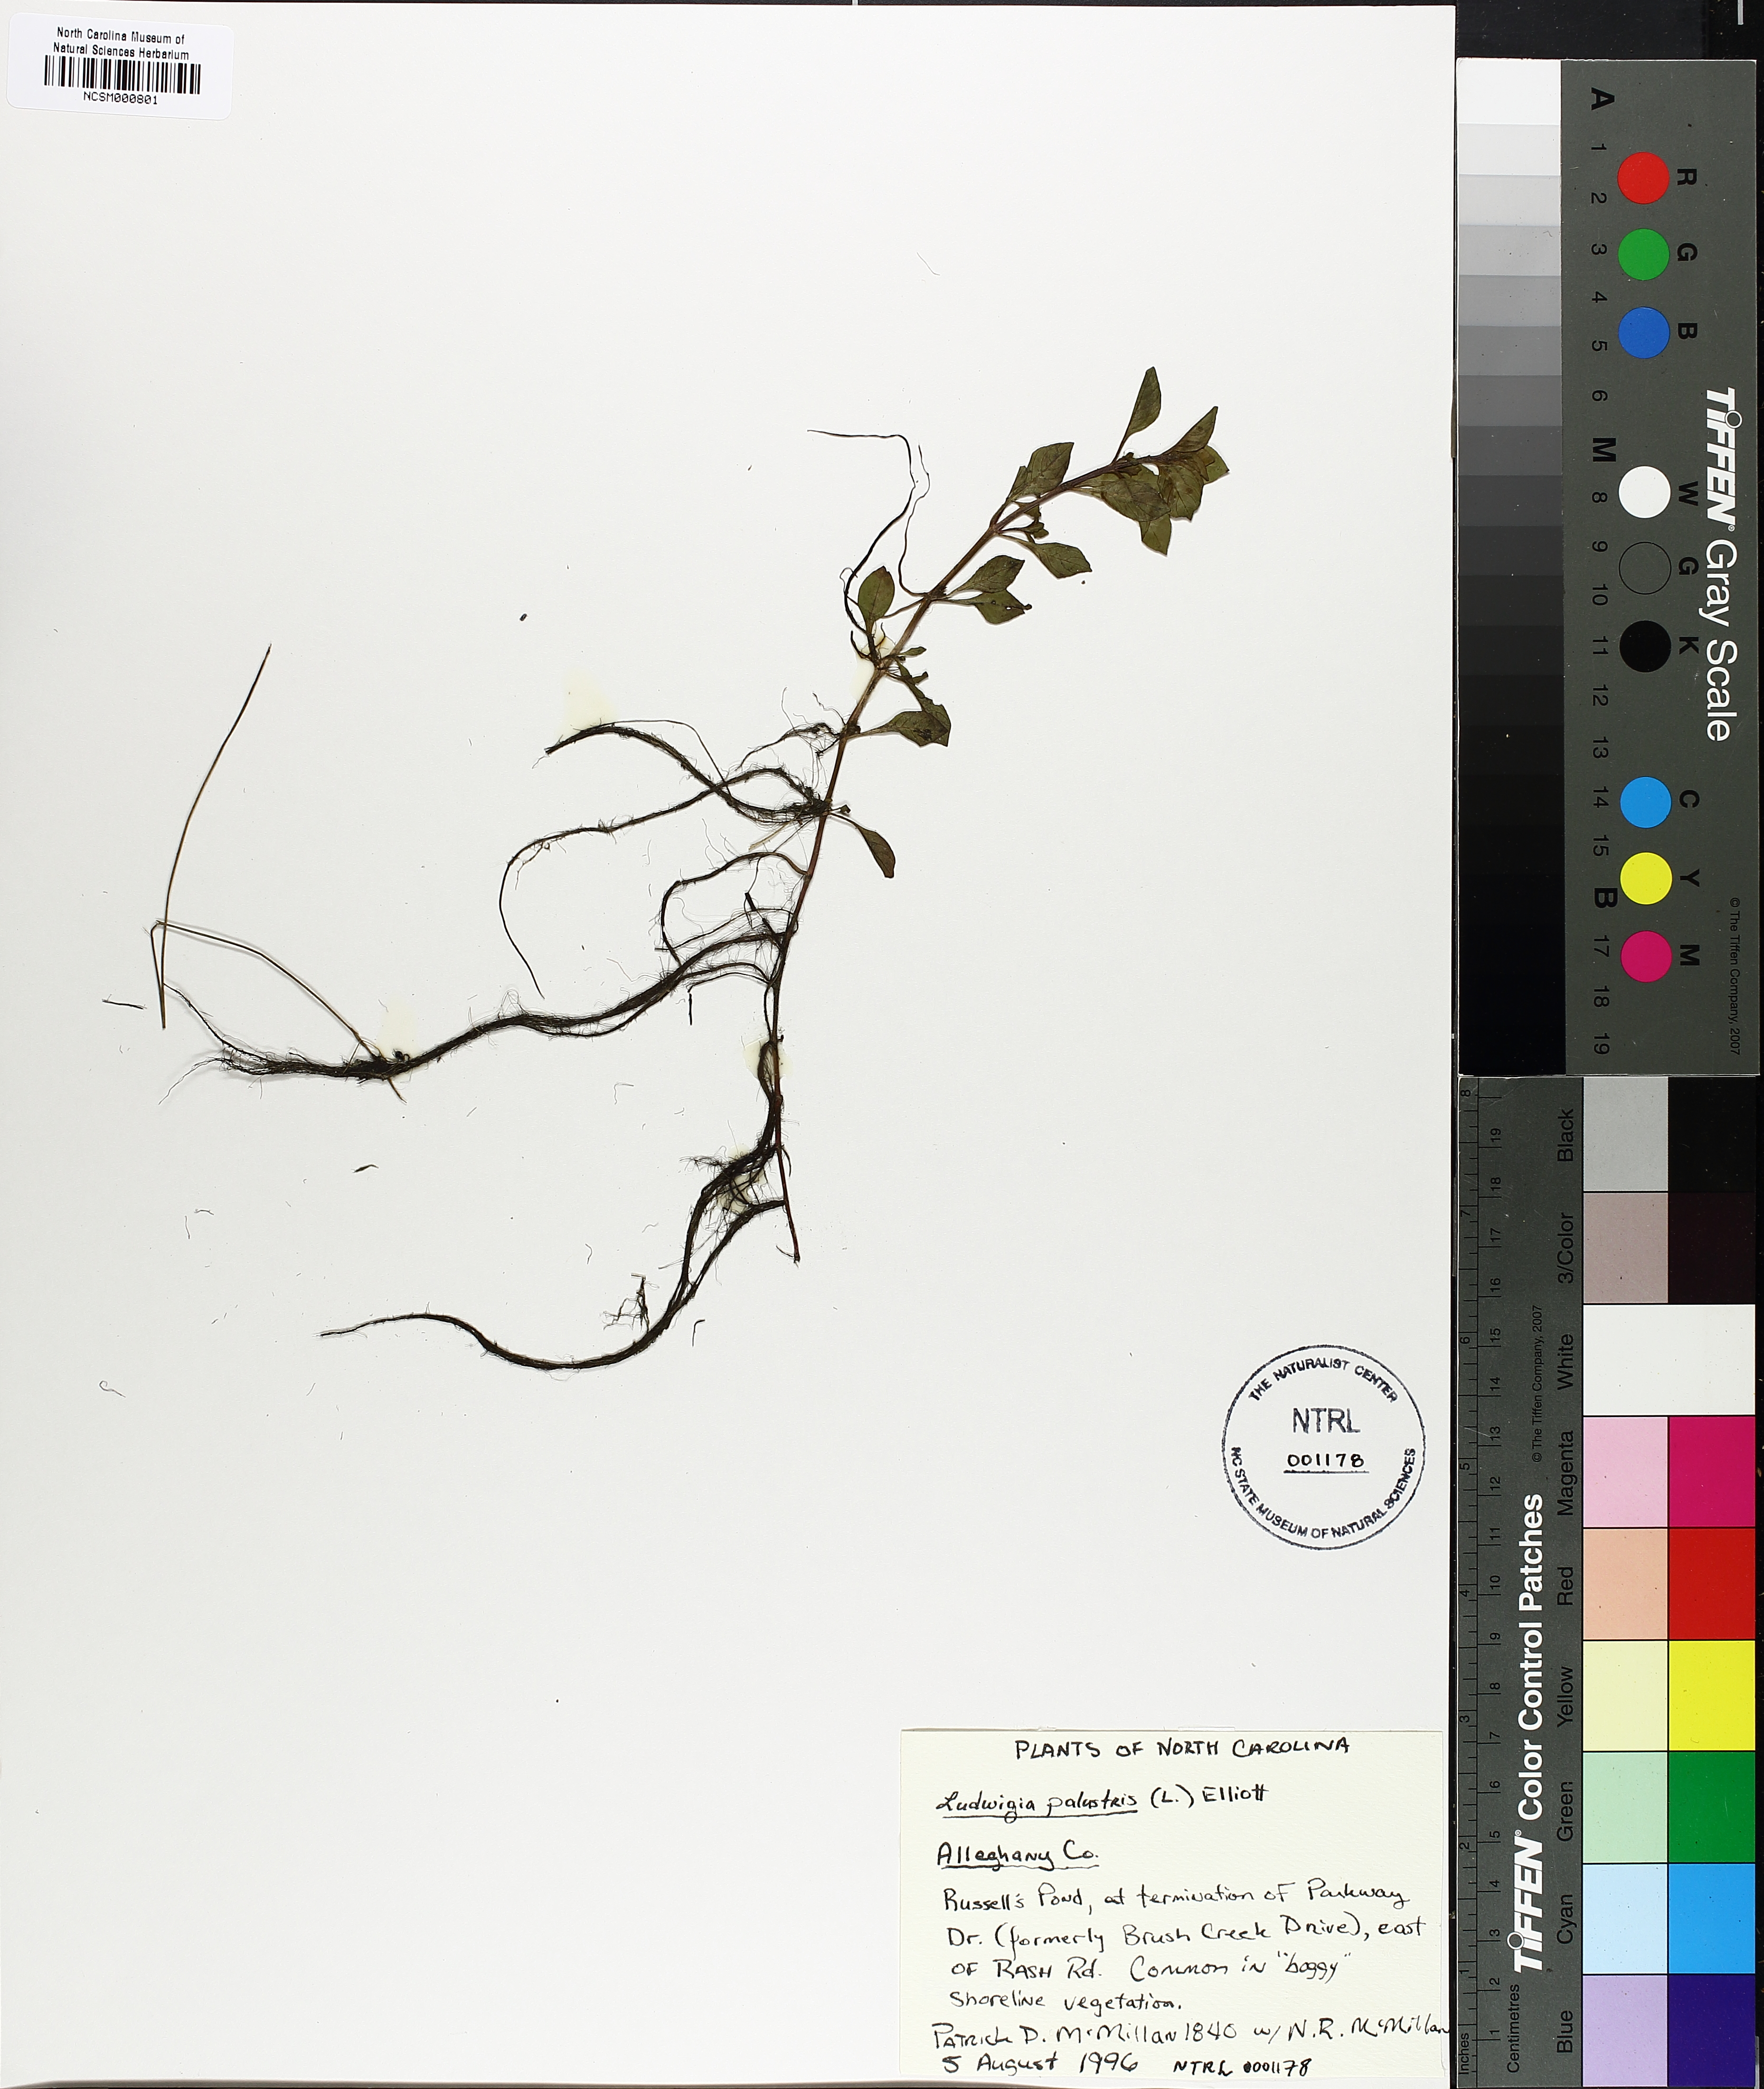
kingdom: Plantae
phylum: Tracheophyta
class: Magnoliopsida
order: Myrtales
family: Onagraceae
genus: Ludwigia
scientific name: Ludwigia palustris
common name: Hampshire-purslane
